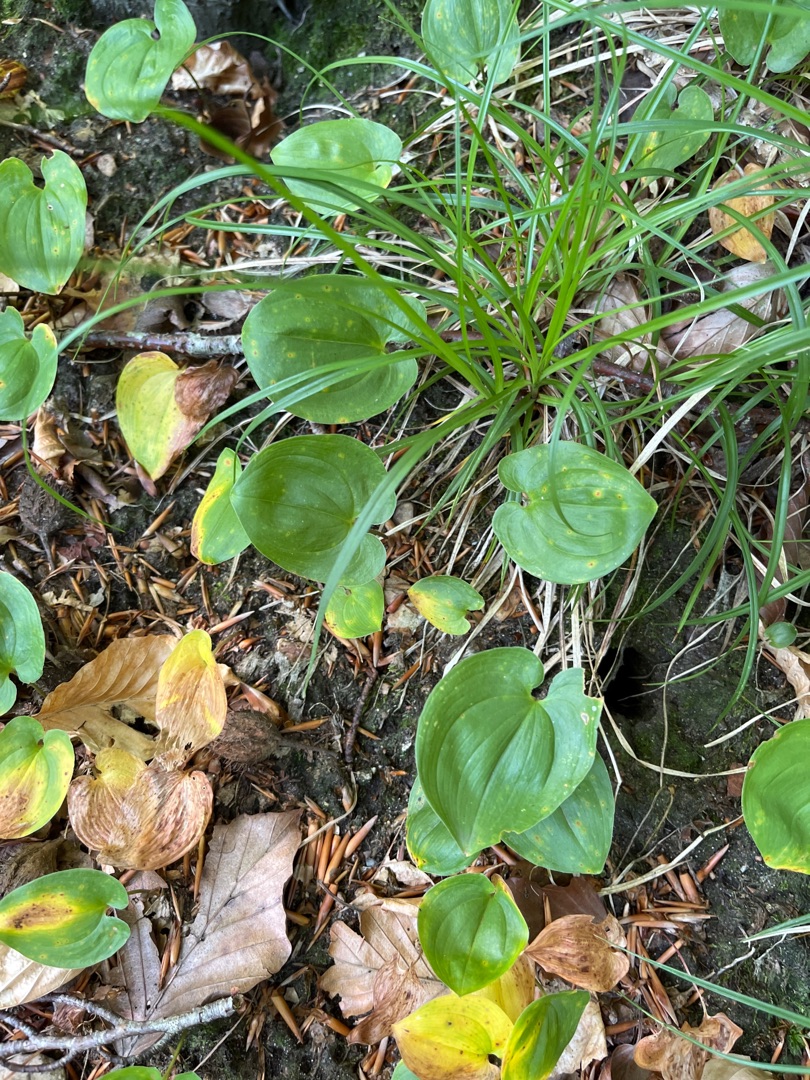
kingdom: Plantae
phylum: Tracheophyta
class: Liliopsida
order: Asparagales
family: Asparagaceae
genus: Maianthemum
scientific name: Maianthemum bifolium
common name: Majblomst
